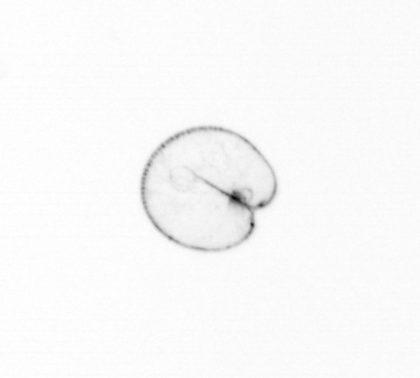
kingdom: Chromista
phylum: Myzozoa
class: Dinophyceae
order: Noctilucales
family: Noctilucaceae
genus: Noctiluca
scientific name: Noctiluca scintillans
